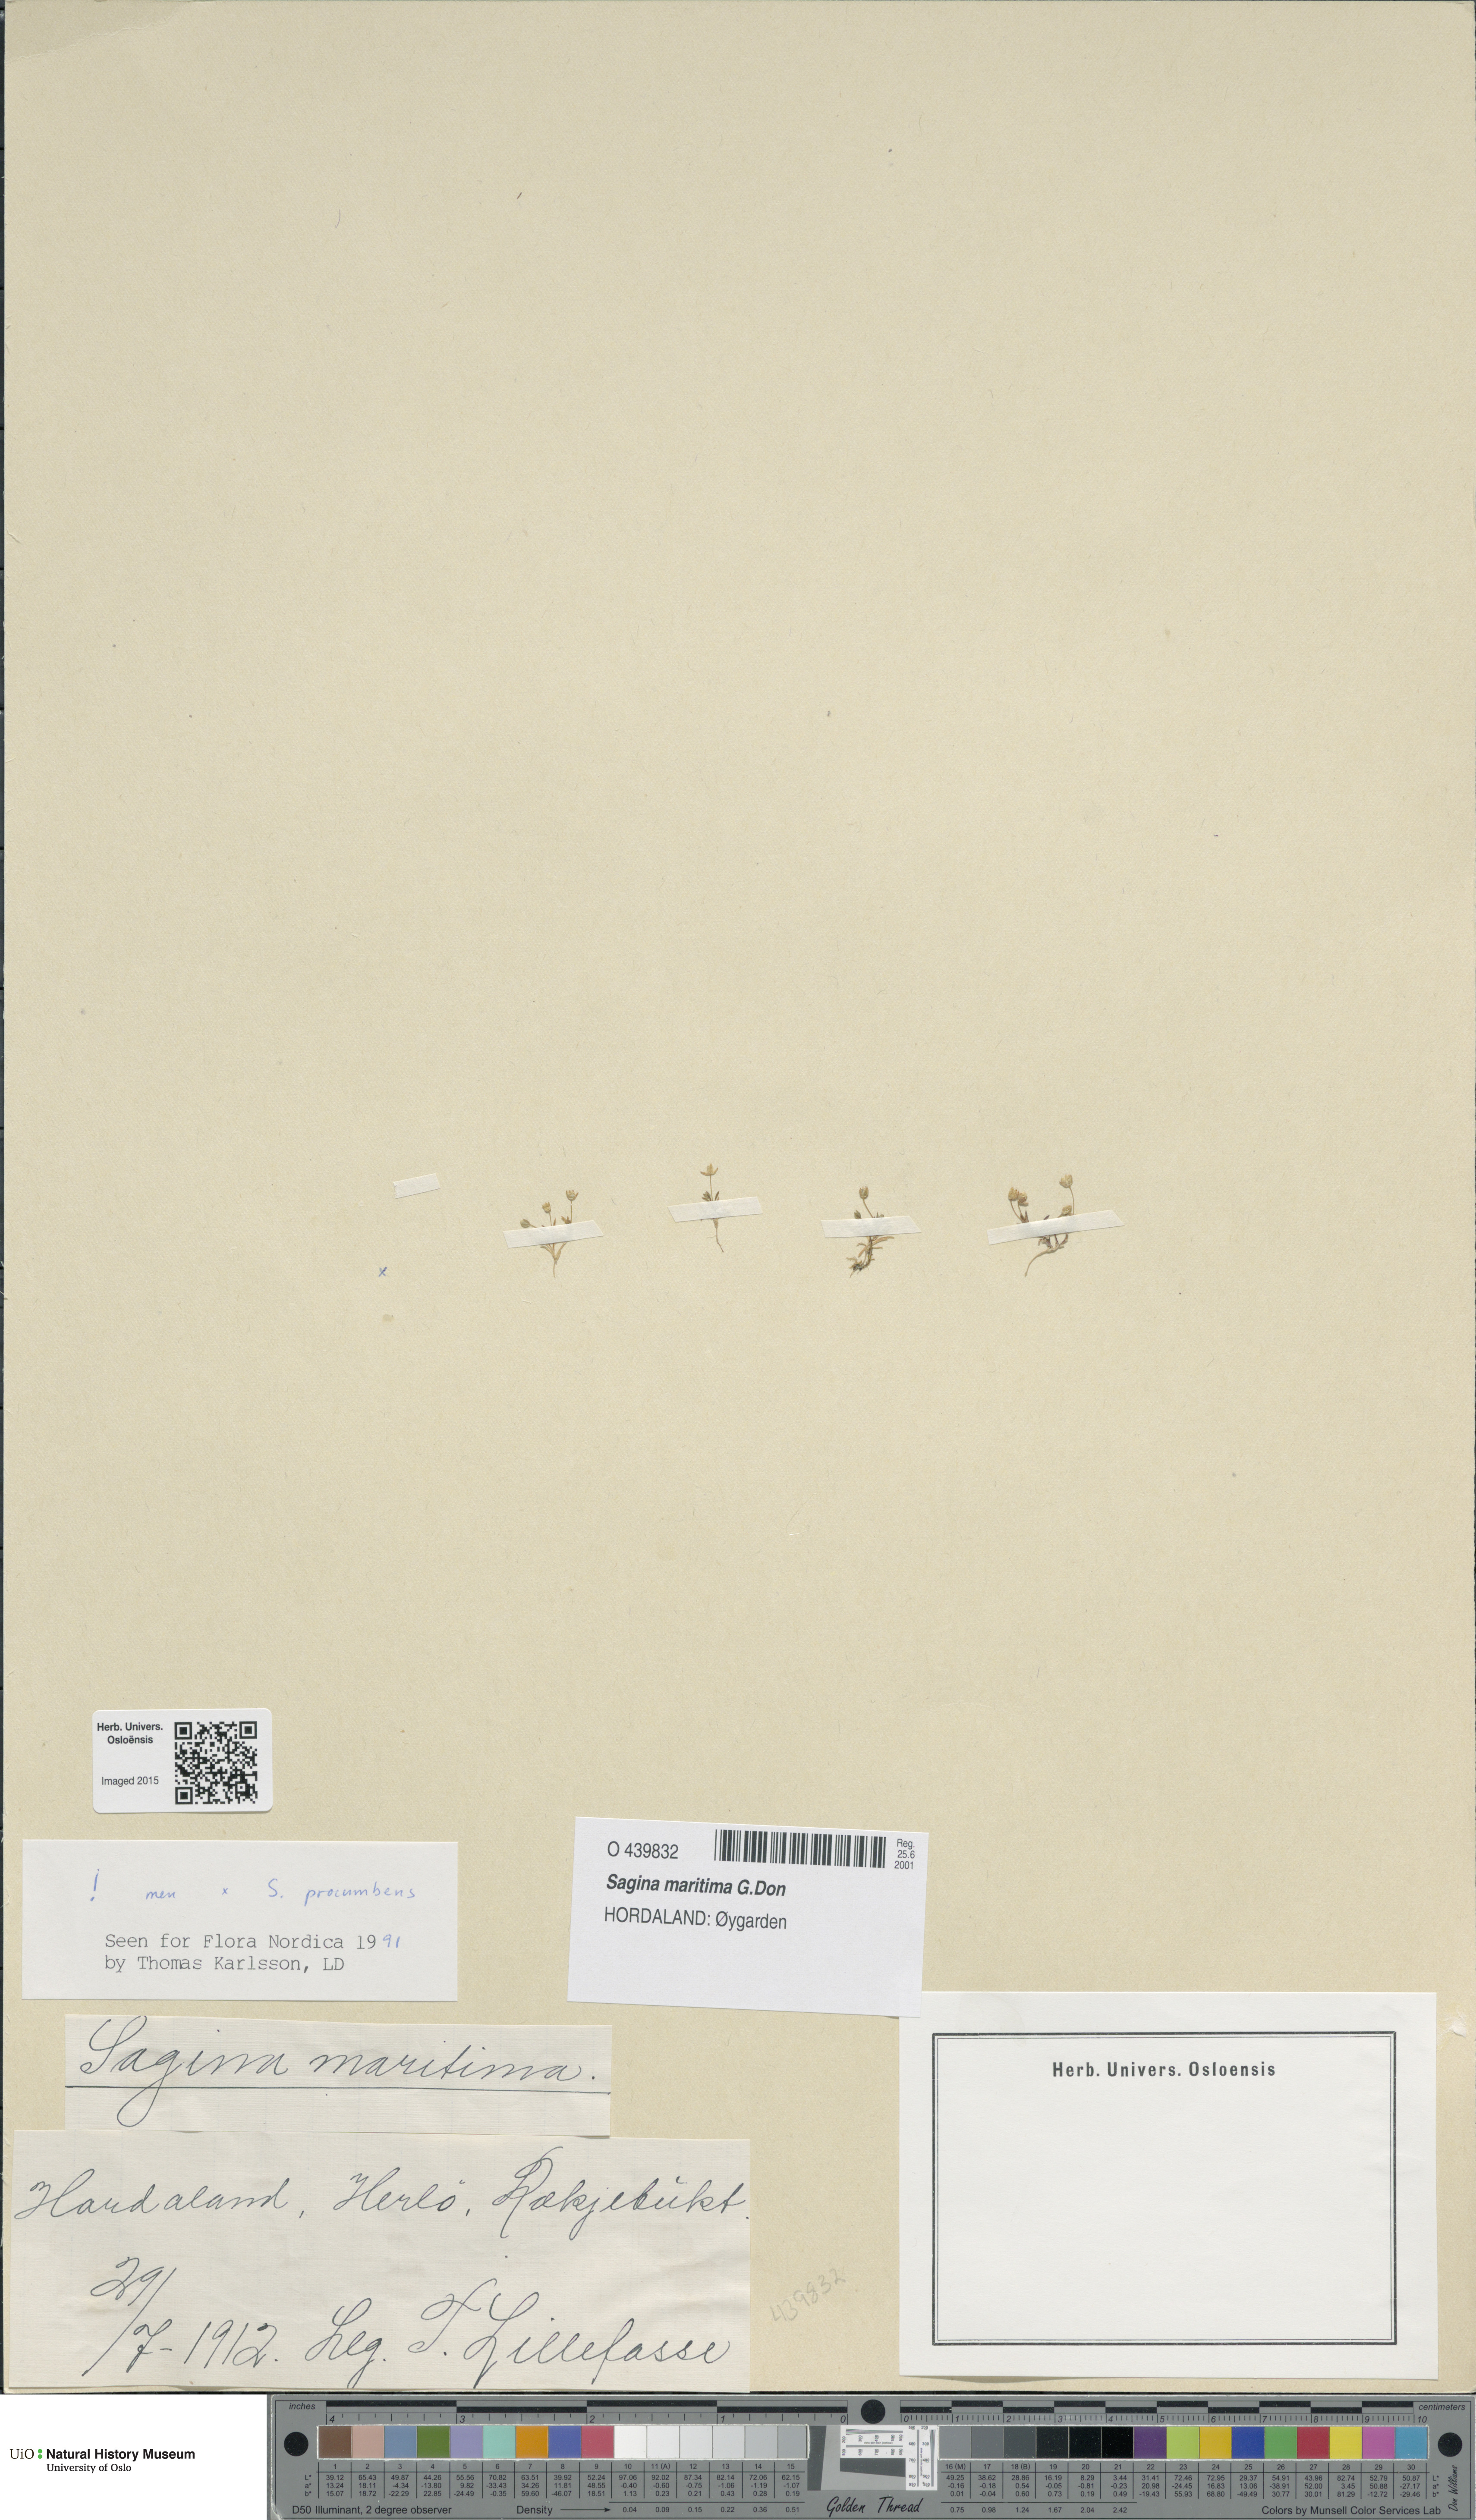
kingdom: Plantae
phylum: Tracheophyta
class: Magnoliopsida
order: Caryophyllales
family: Caryophyllaceae
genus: Sagina
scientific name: Sagina maritima
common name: Sea pearlwort
